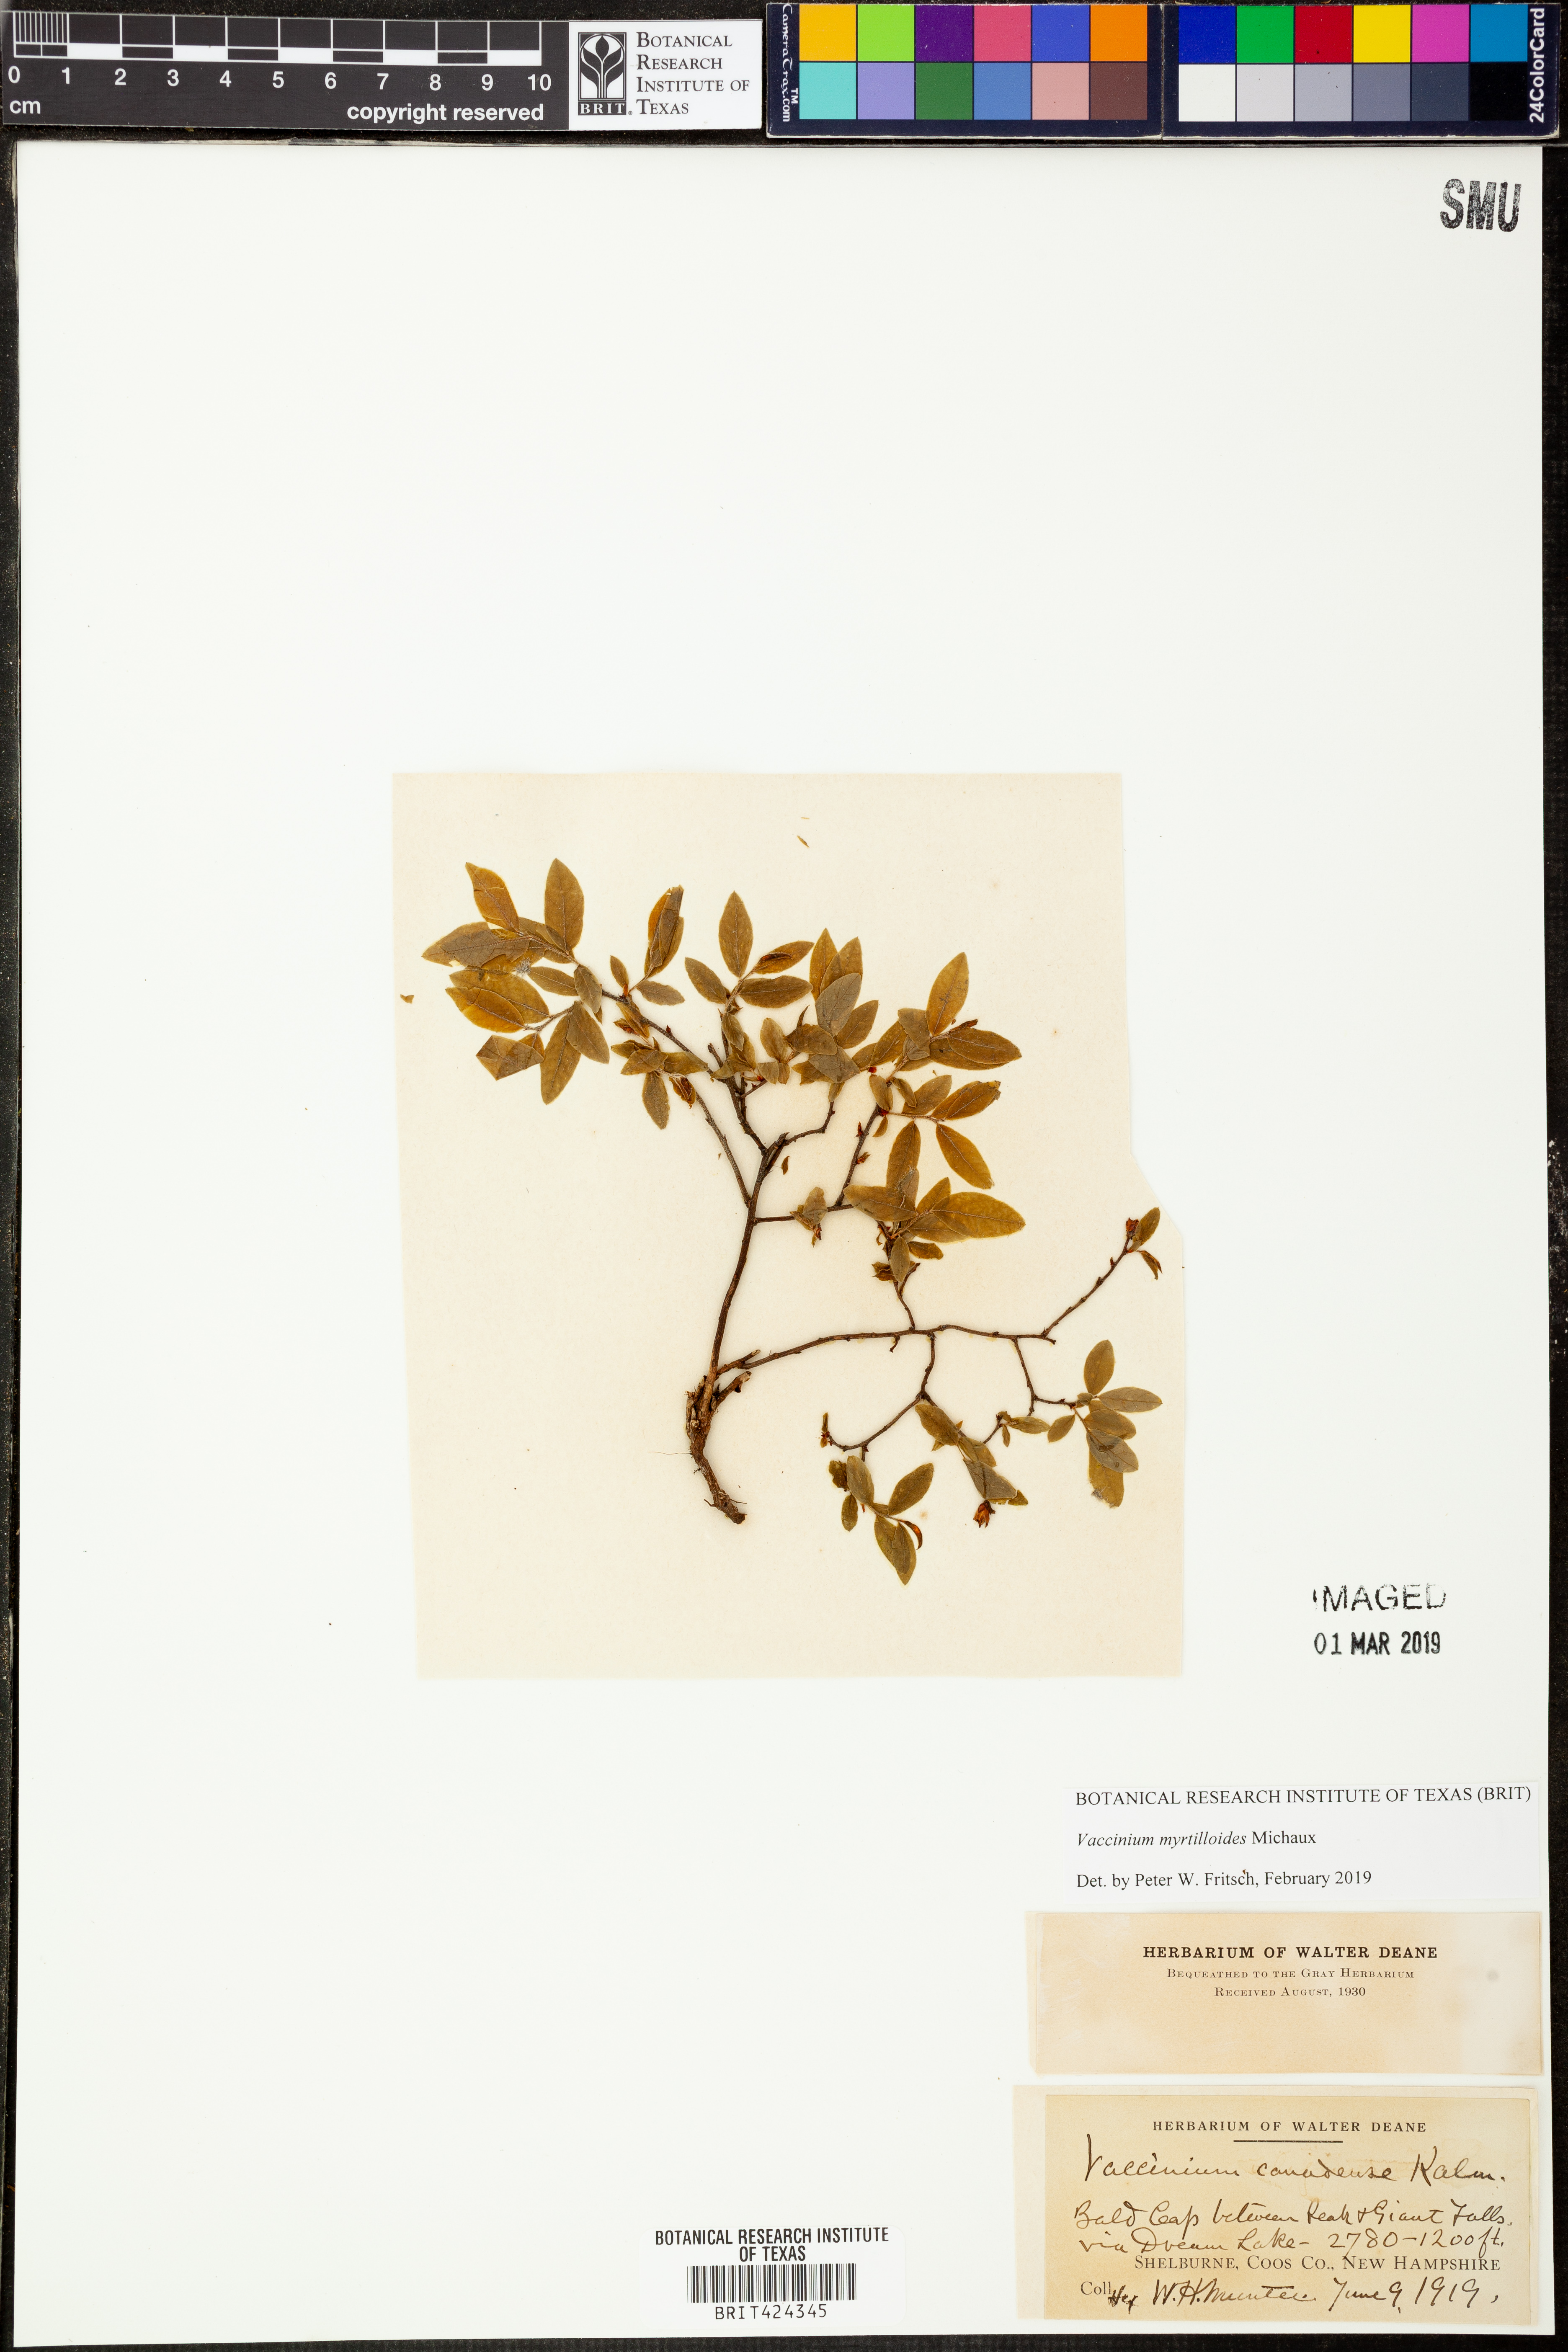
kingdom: Plantae
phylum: Tracheophyta
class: Magnoliopsida
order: Ericales
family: Ericaceae
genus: Vaccinium
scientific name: Vaccinium myrtilloides
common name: Canada blueberry
